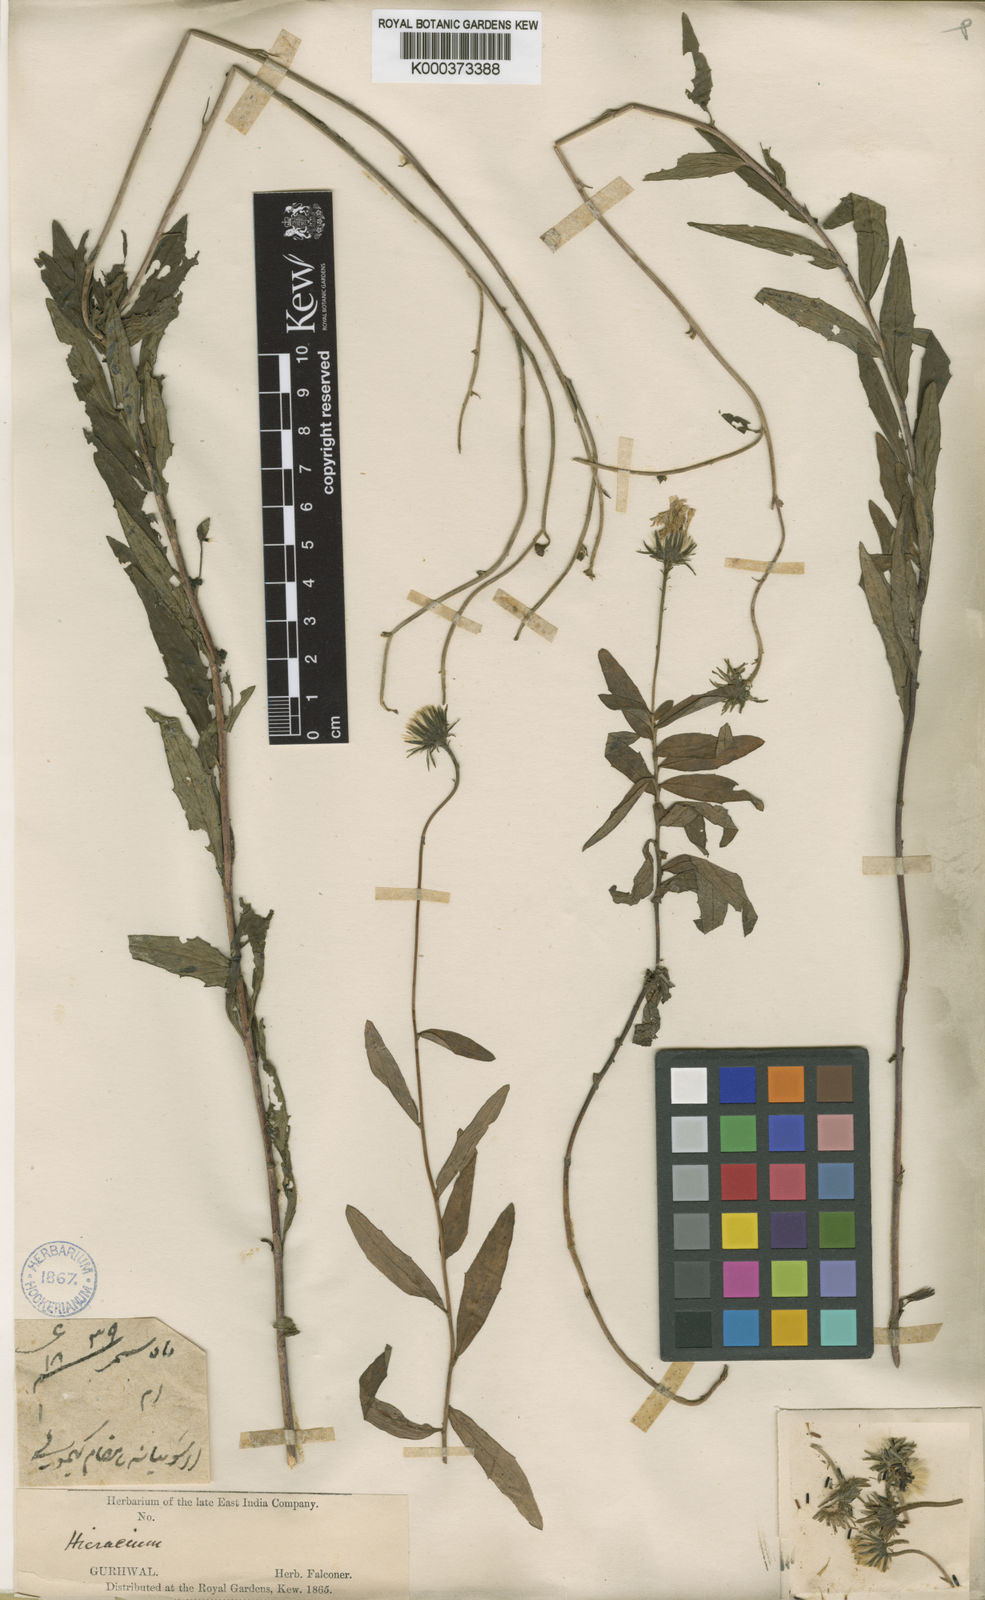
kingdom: Plantae
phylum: Tracheophyta
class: Magnoliopsida
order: Asterales
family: Asteraceae
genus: Hieracium
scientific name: Hieracium umbellatum
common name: Northern hawkweed
